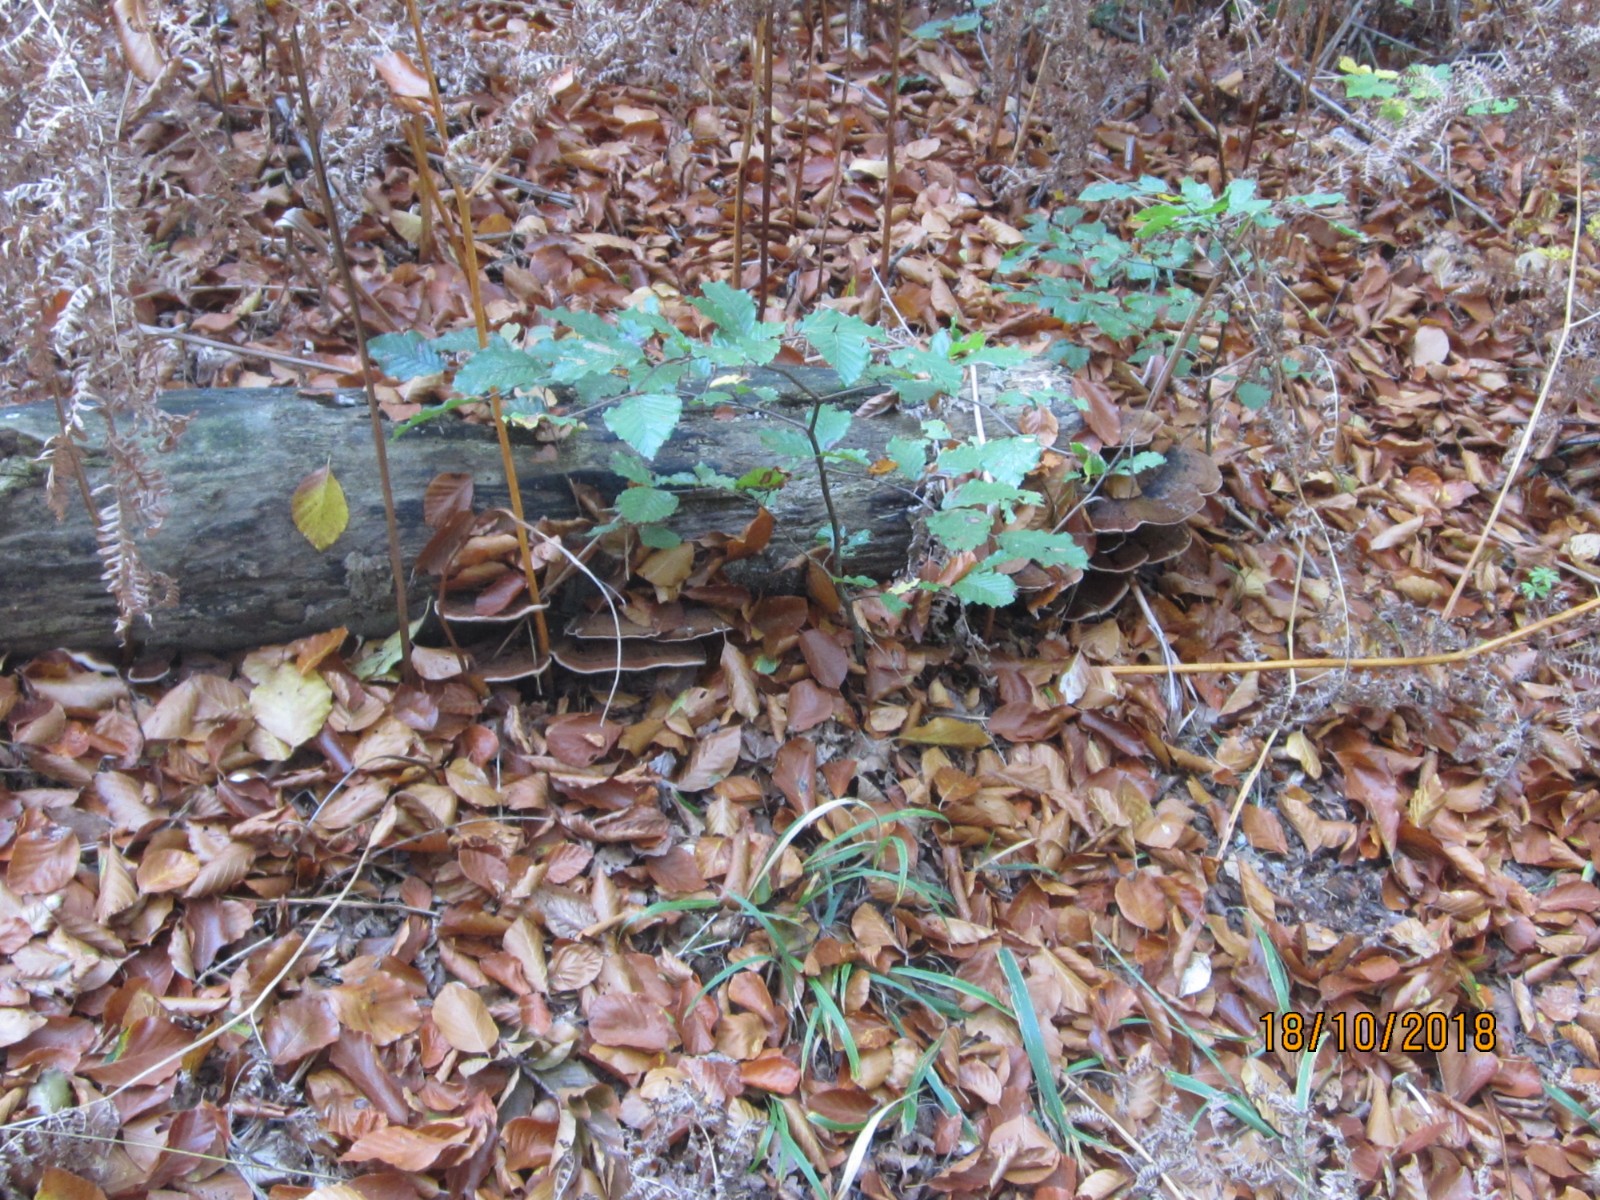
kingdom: Fungi
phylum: Basidiomycota
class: Agaricomycetes
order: Polyporales
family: Ischnodermataceae
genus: Ischnoderma
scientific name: Ischnoderma resinosum
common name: løv-tjæreporesvamp
